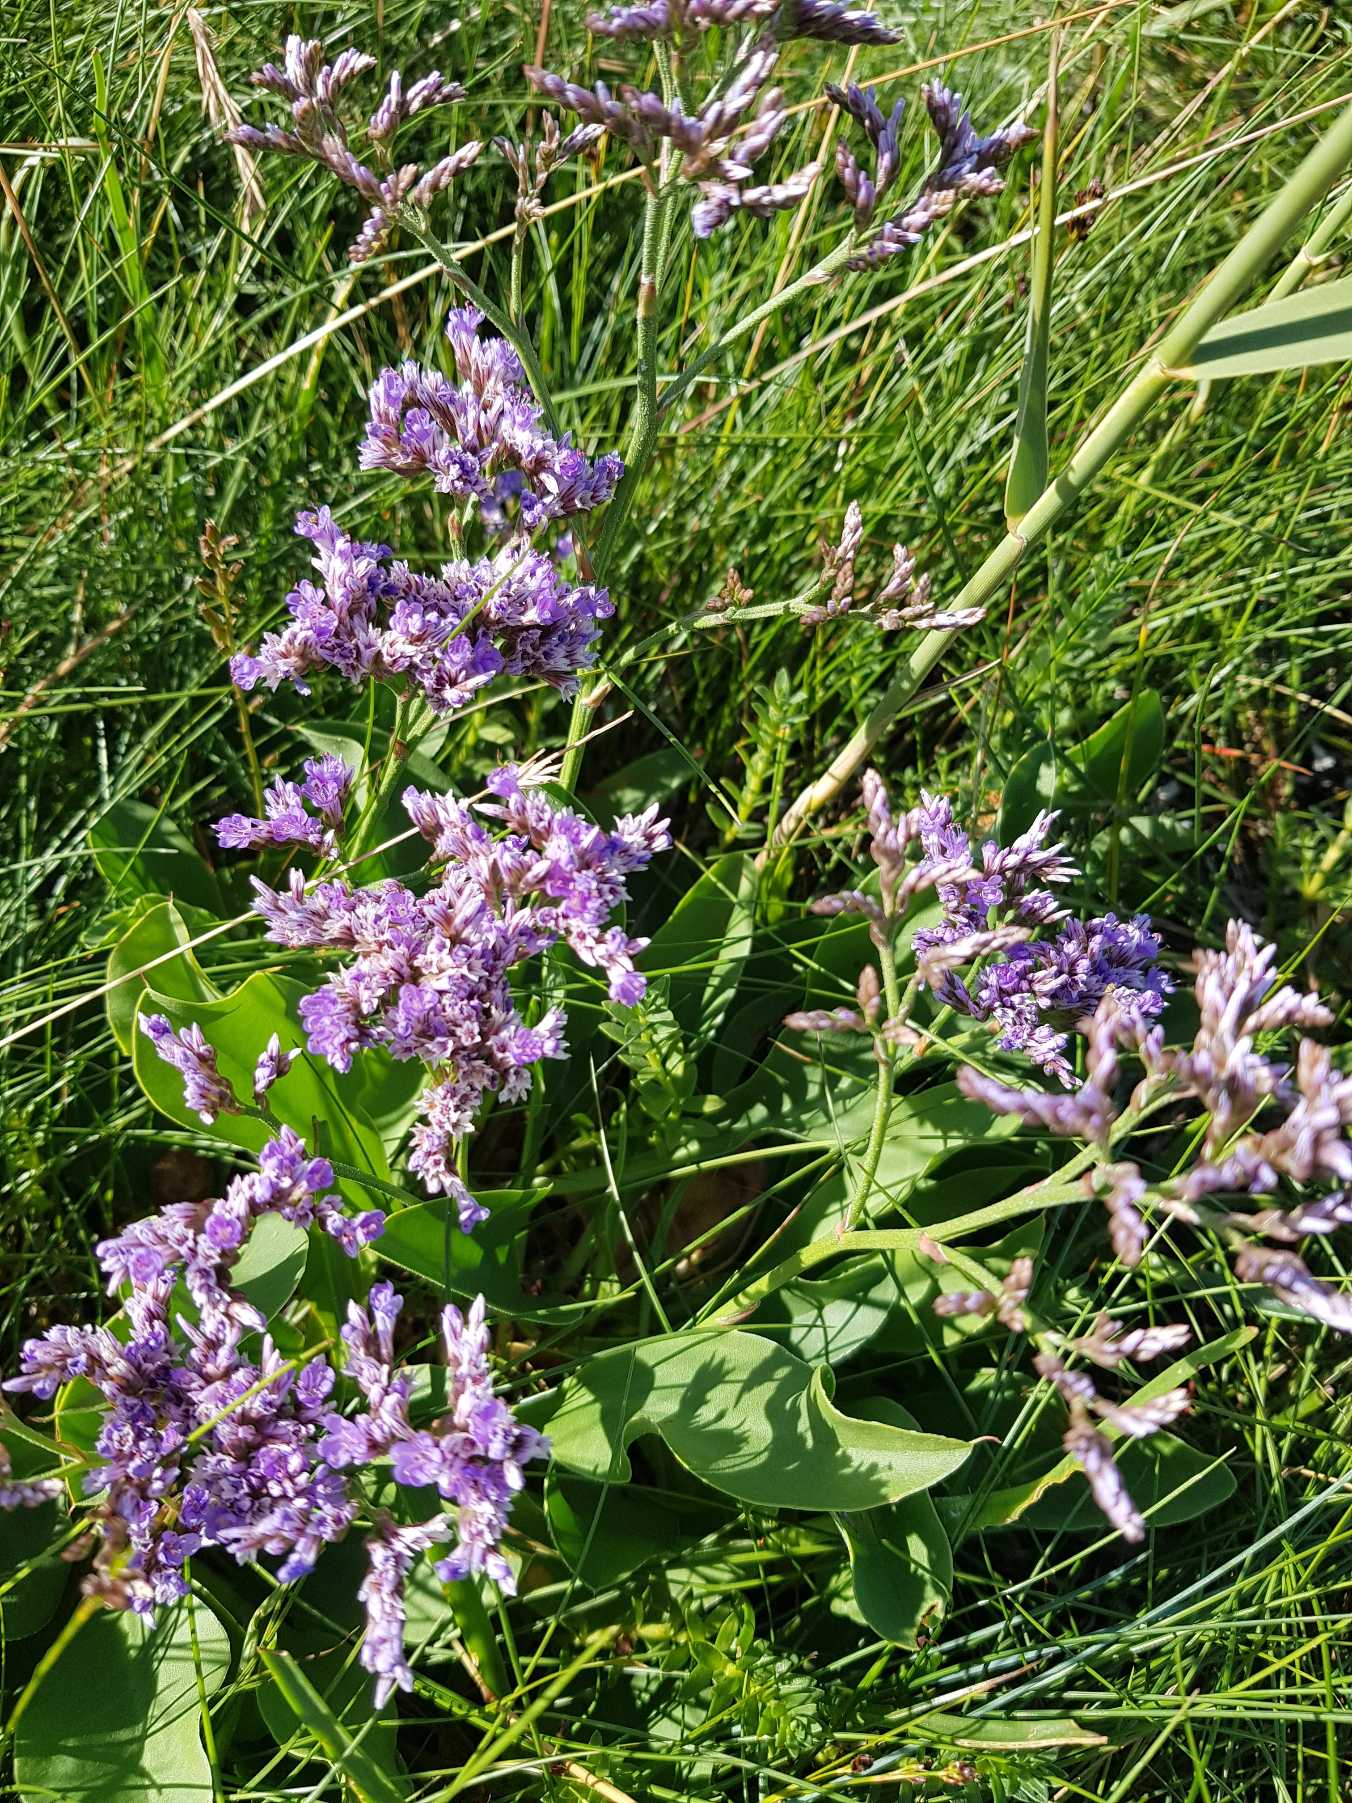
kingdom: Plantae
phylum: Tracheophyta
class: Magnoliopsida
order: Caryophyllales
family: Plumbaginaceae
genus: Limonium
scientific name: Limonium vulgare
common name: Tætblomstret hindebæger
